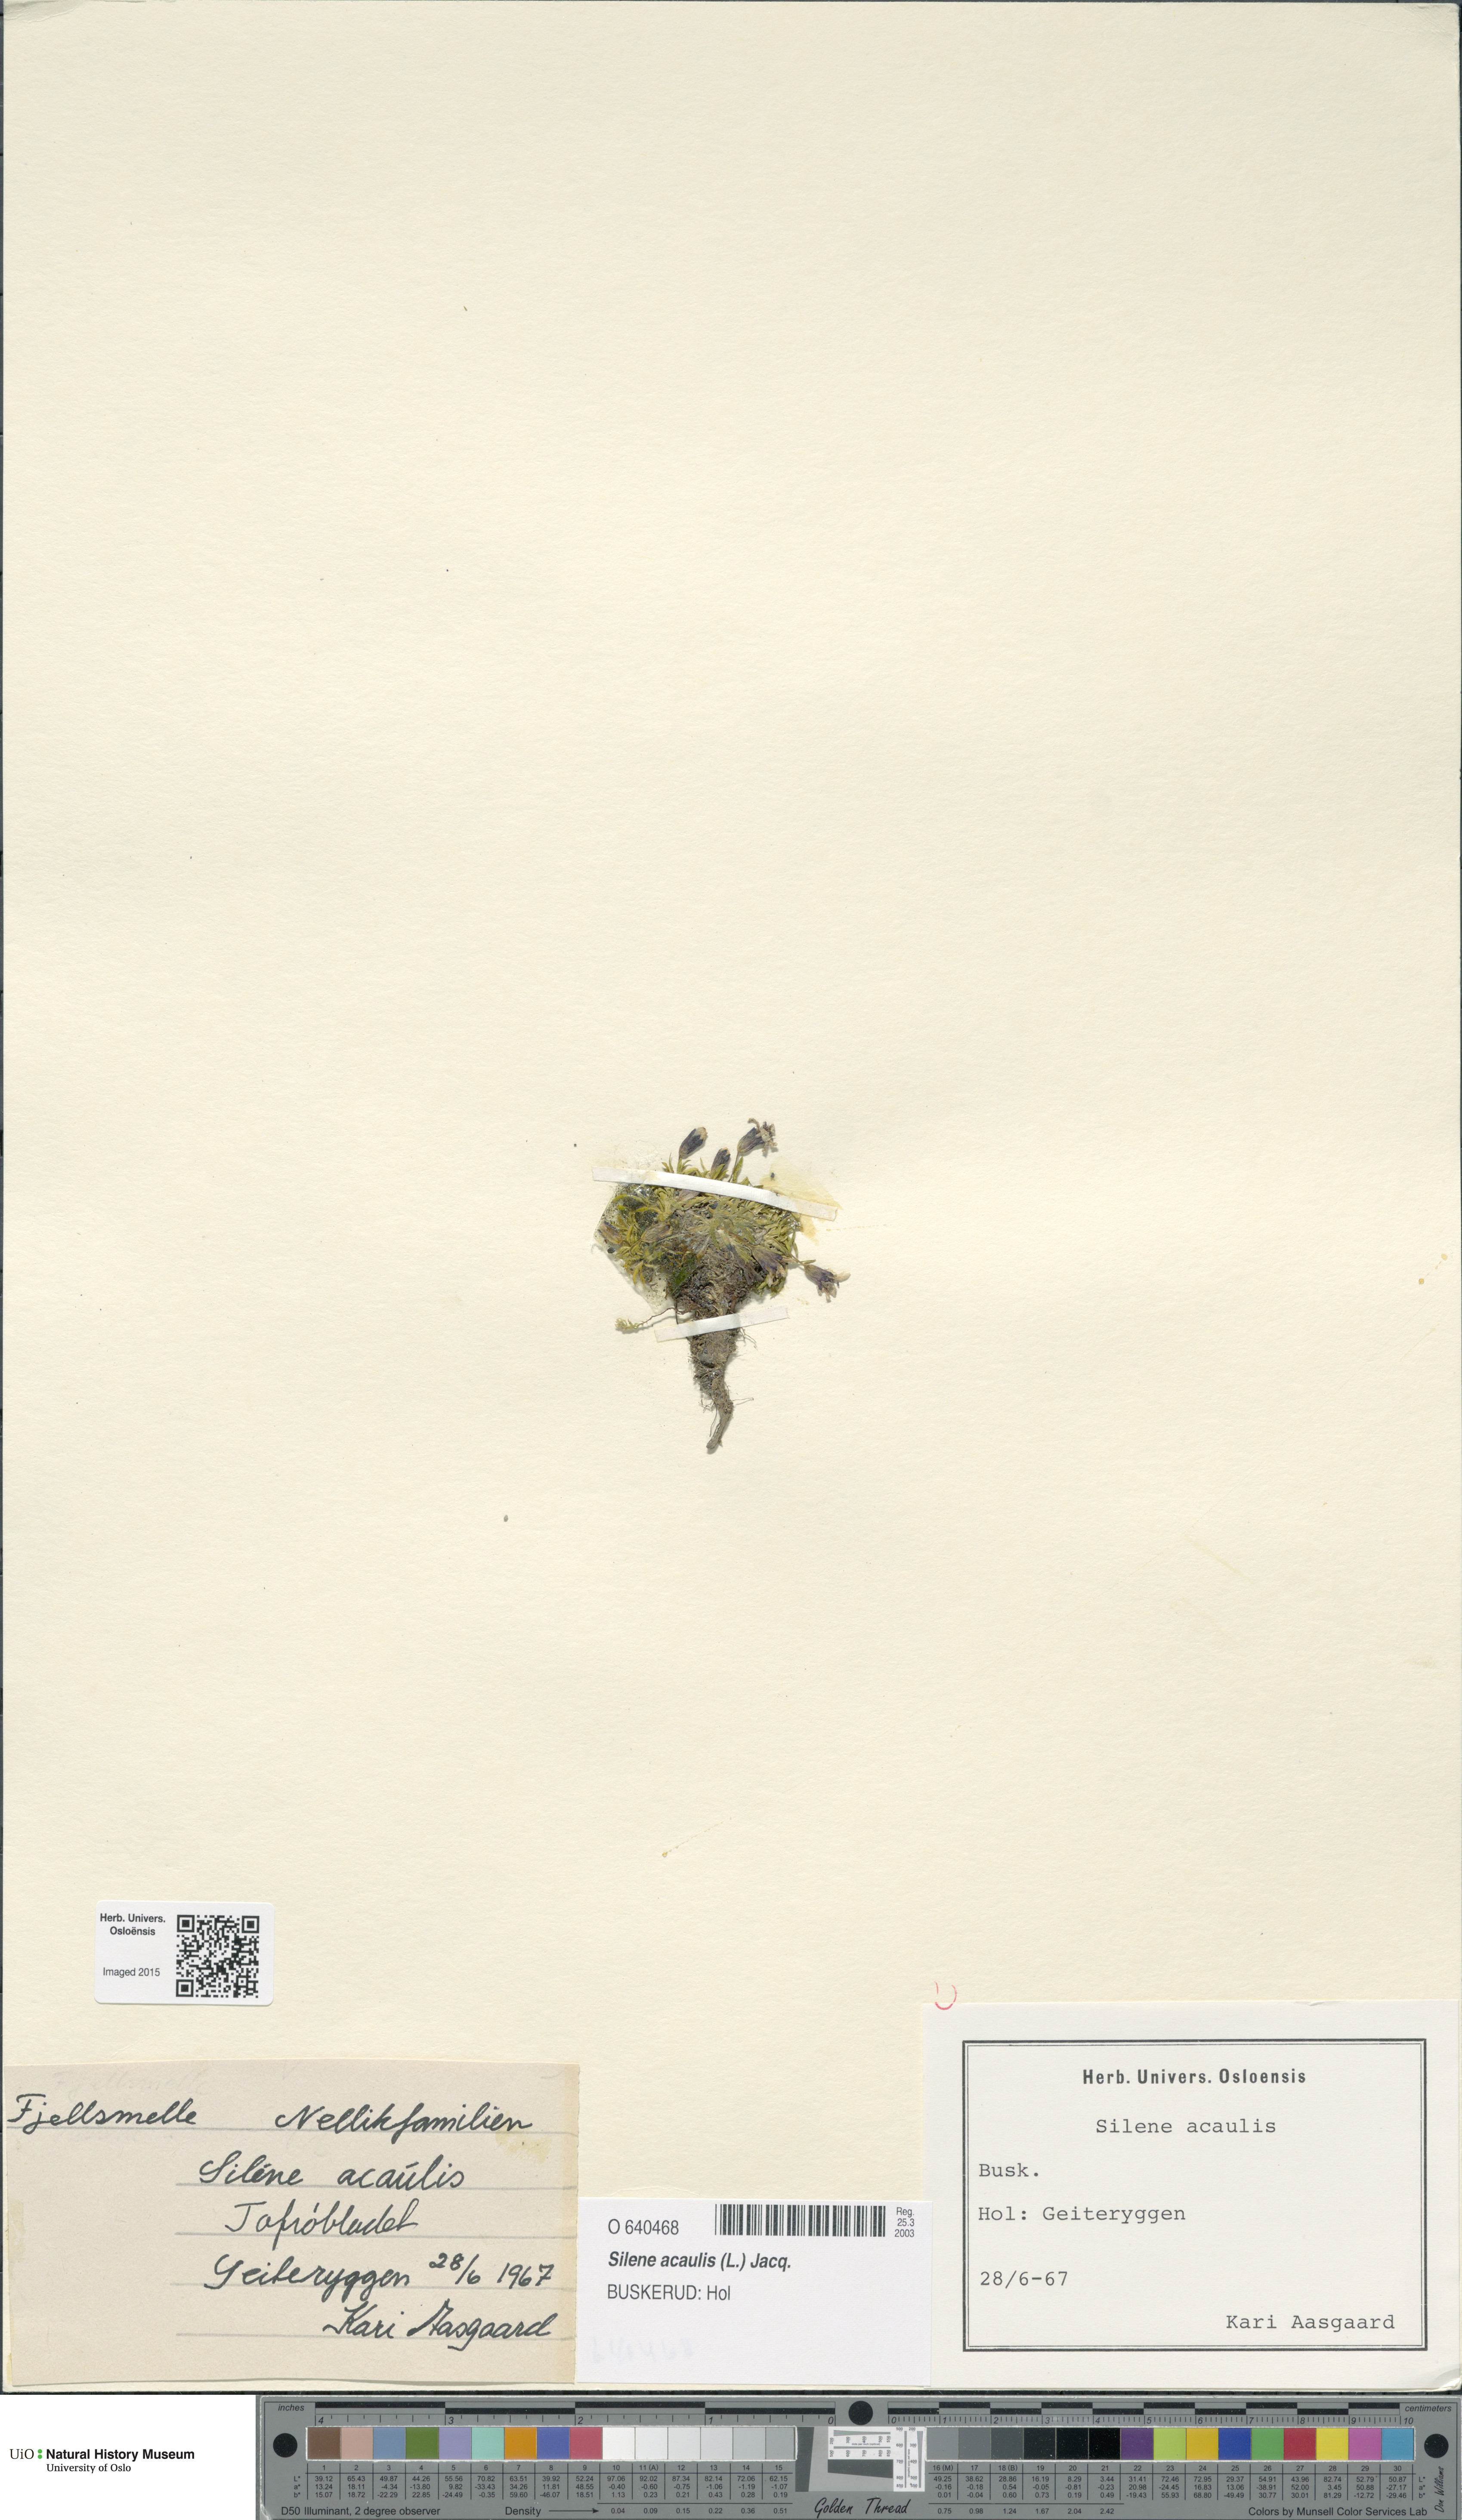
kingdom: Plantae
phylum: Tracheophyta
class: Magnoliopsida
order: Caryophyllales
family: Caryophyllaceae
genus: Silene
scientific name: Silene acaulis
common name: Moss campion
